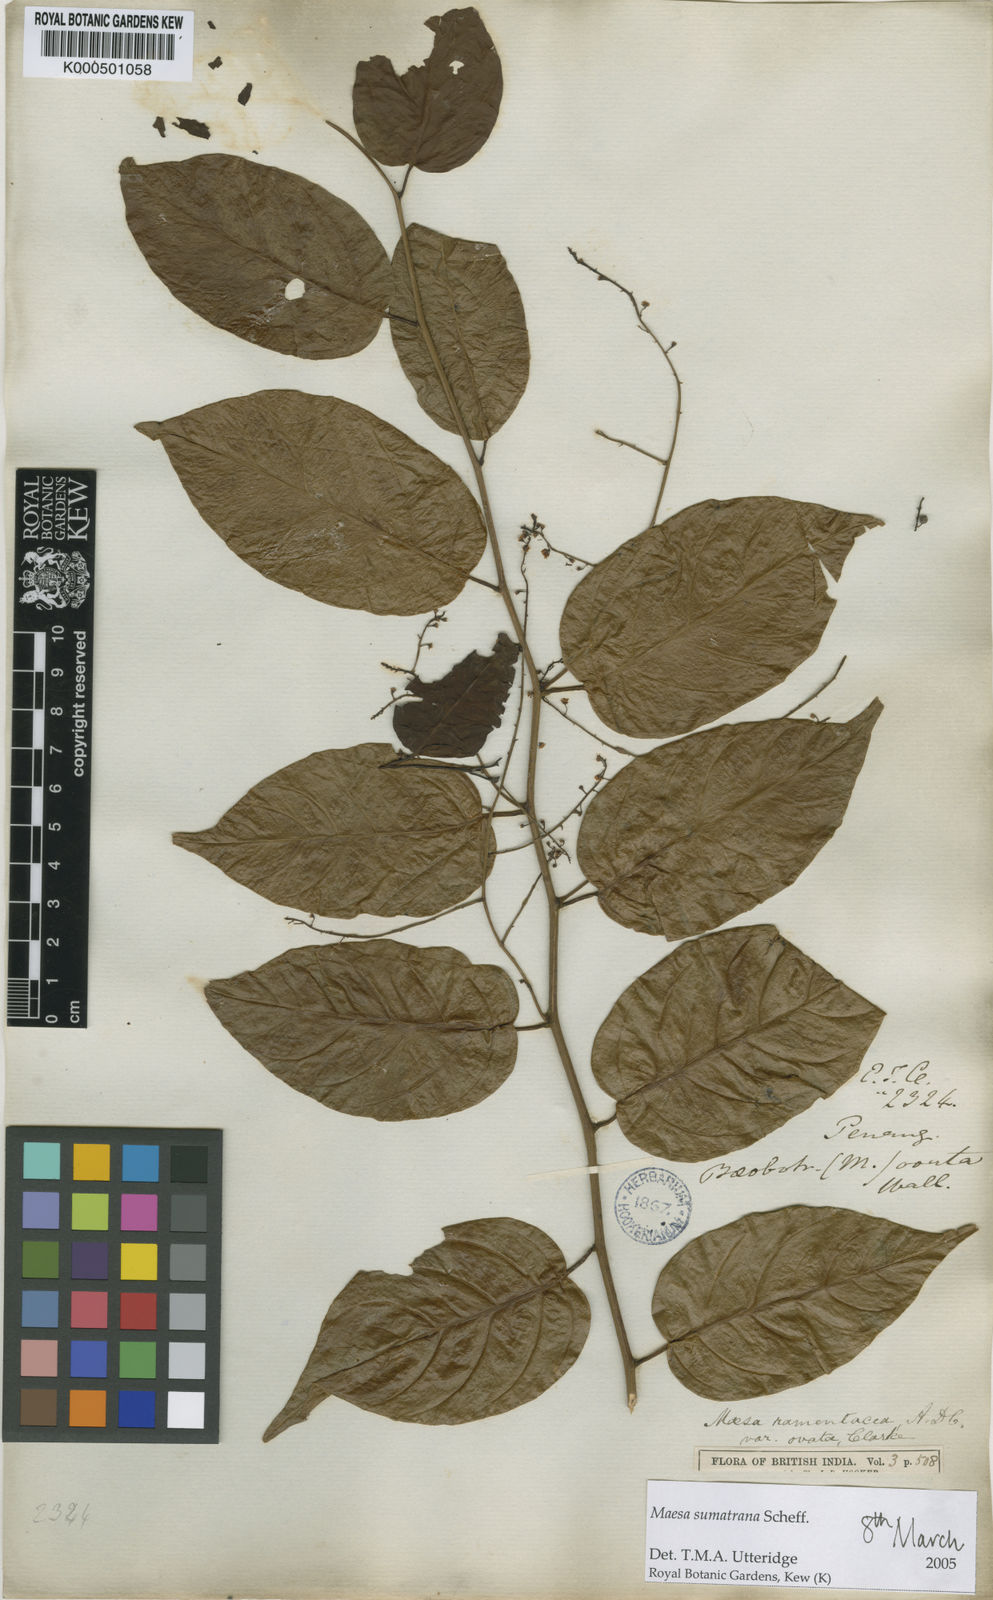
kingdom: Plantae
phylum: Tracheophyta
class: Magnoliopsida
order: Ericales
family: Primulaceae
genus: Maesa
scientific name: Maesa sumatrana
